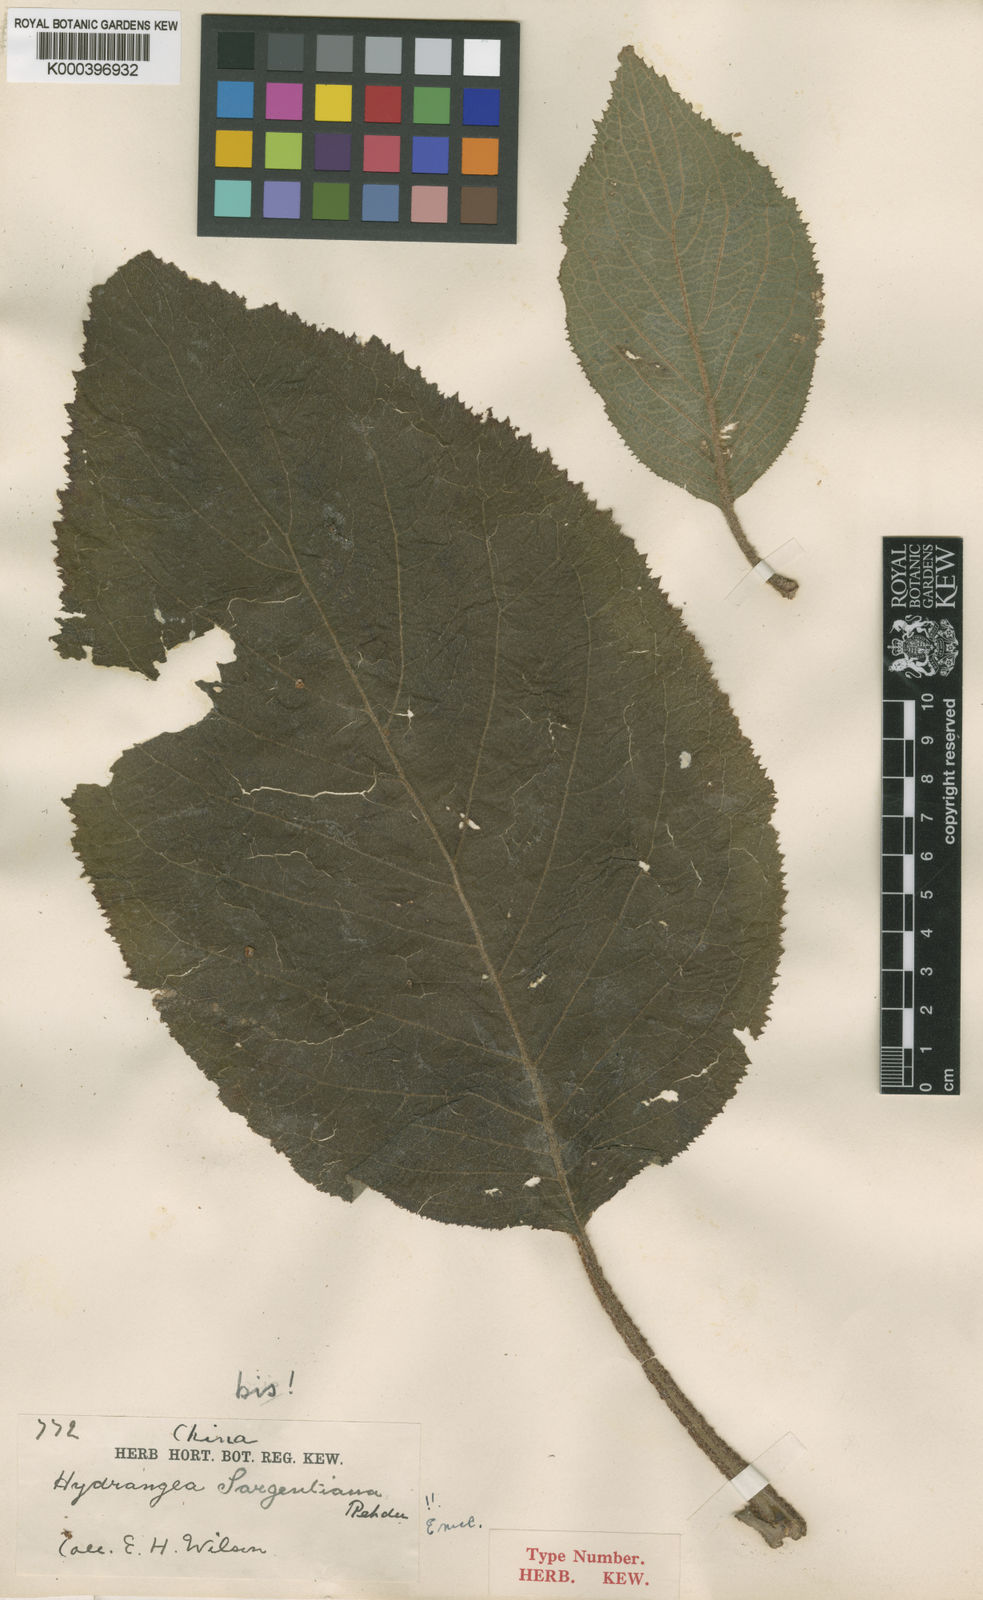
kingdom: Plantae
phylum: Tracheophyta
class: Magnoliopsida
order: Cornales
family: Hydrangeaceae
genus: Hydrangea
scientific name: Hydrangea sargentiana
